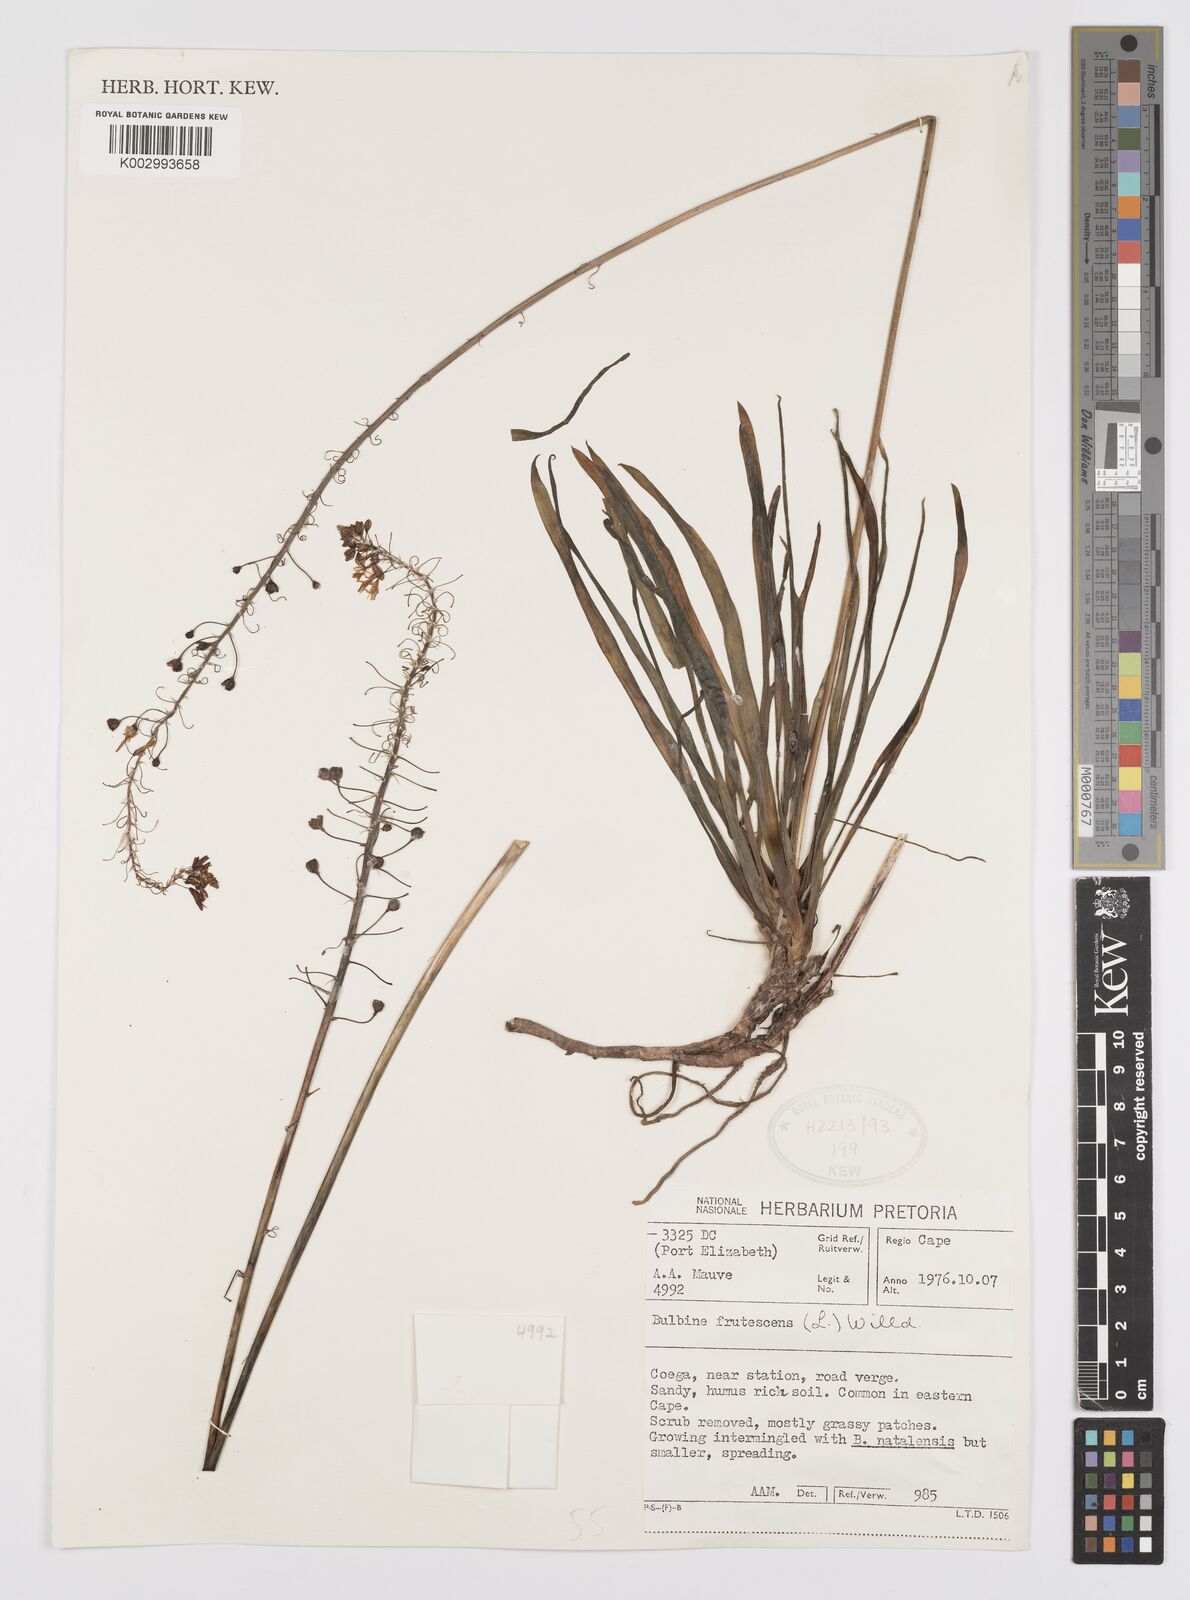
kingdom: Plantae
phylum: Tracheophyta
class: Liliopsida
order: Asparagales
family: Asphodelaceae
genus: Bulbine
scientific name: Bulbine frutescens
